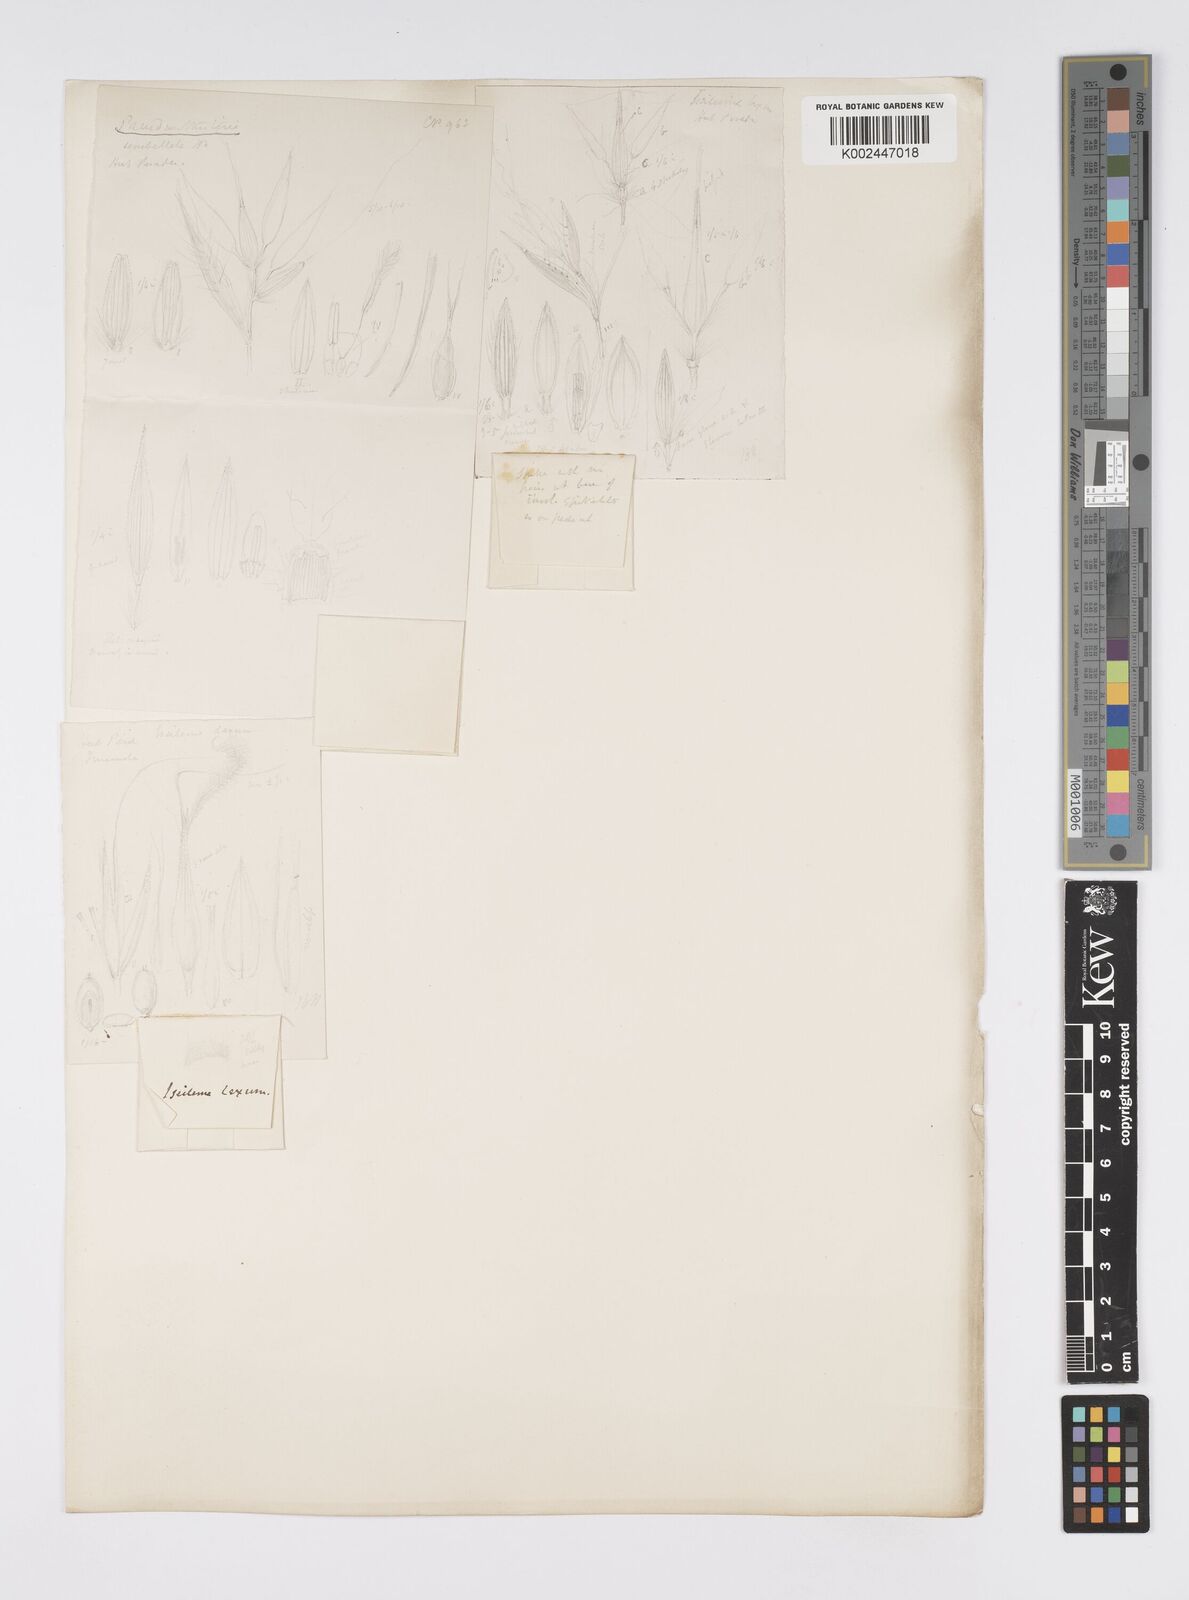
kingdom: Plantae
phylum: Tracheophyta
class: Liliopsida
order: Poales
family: Poaceae
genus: Iseilema
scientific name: Iseilema prostratum
